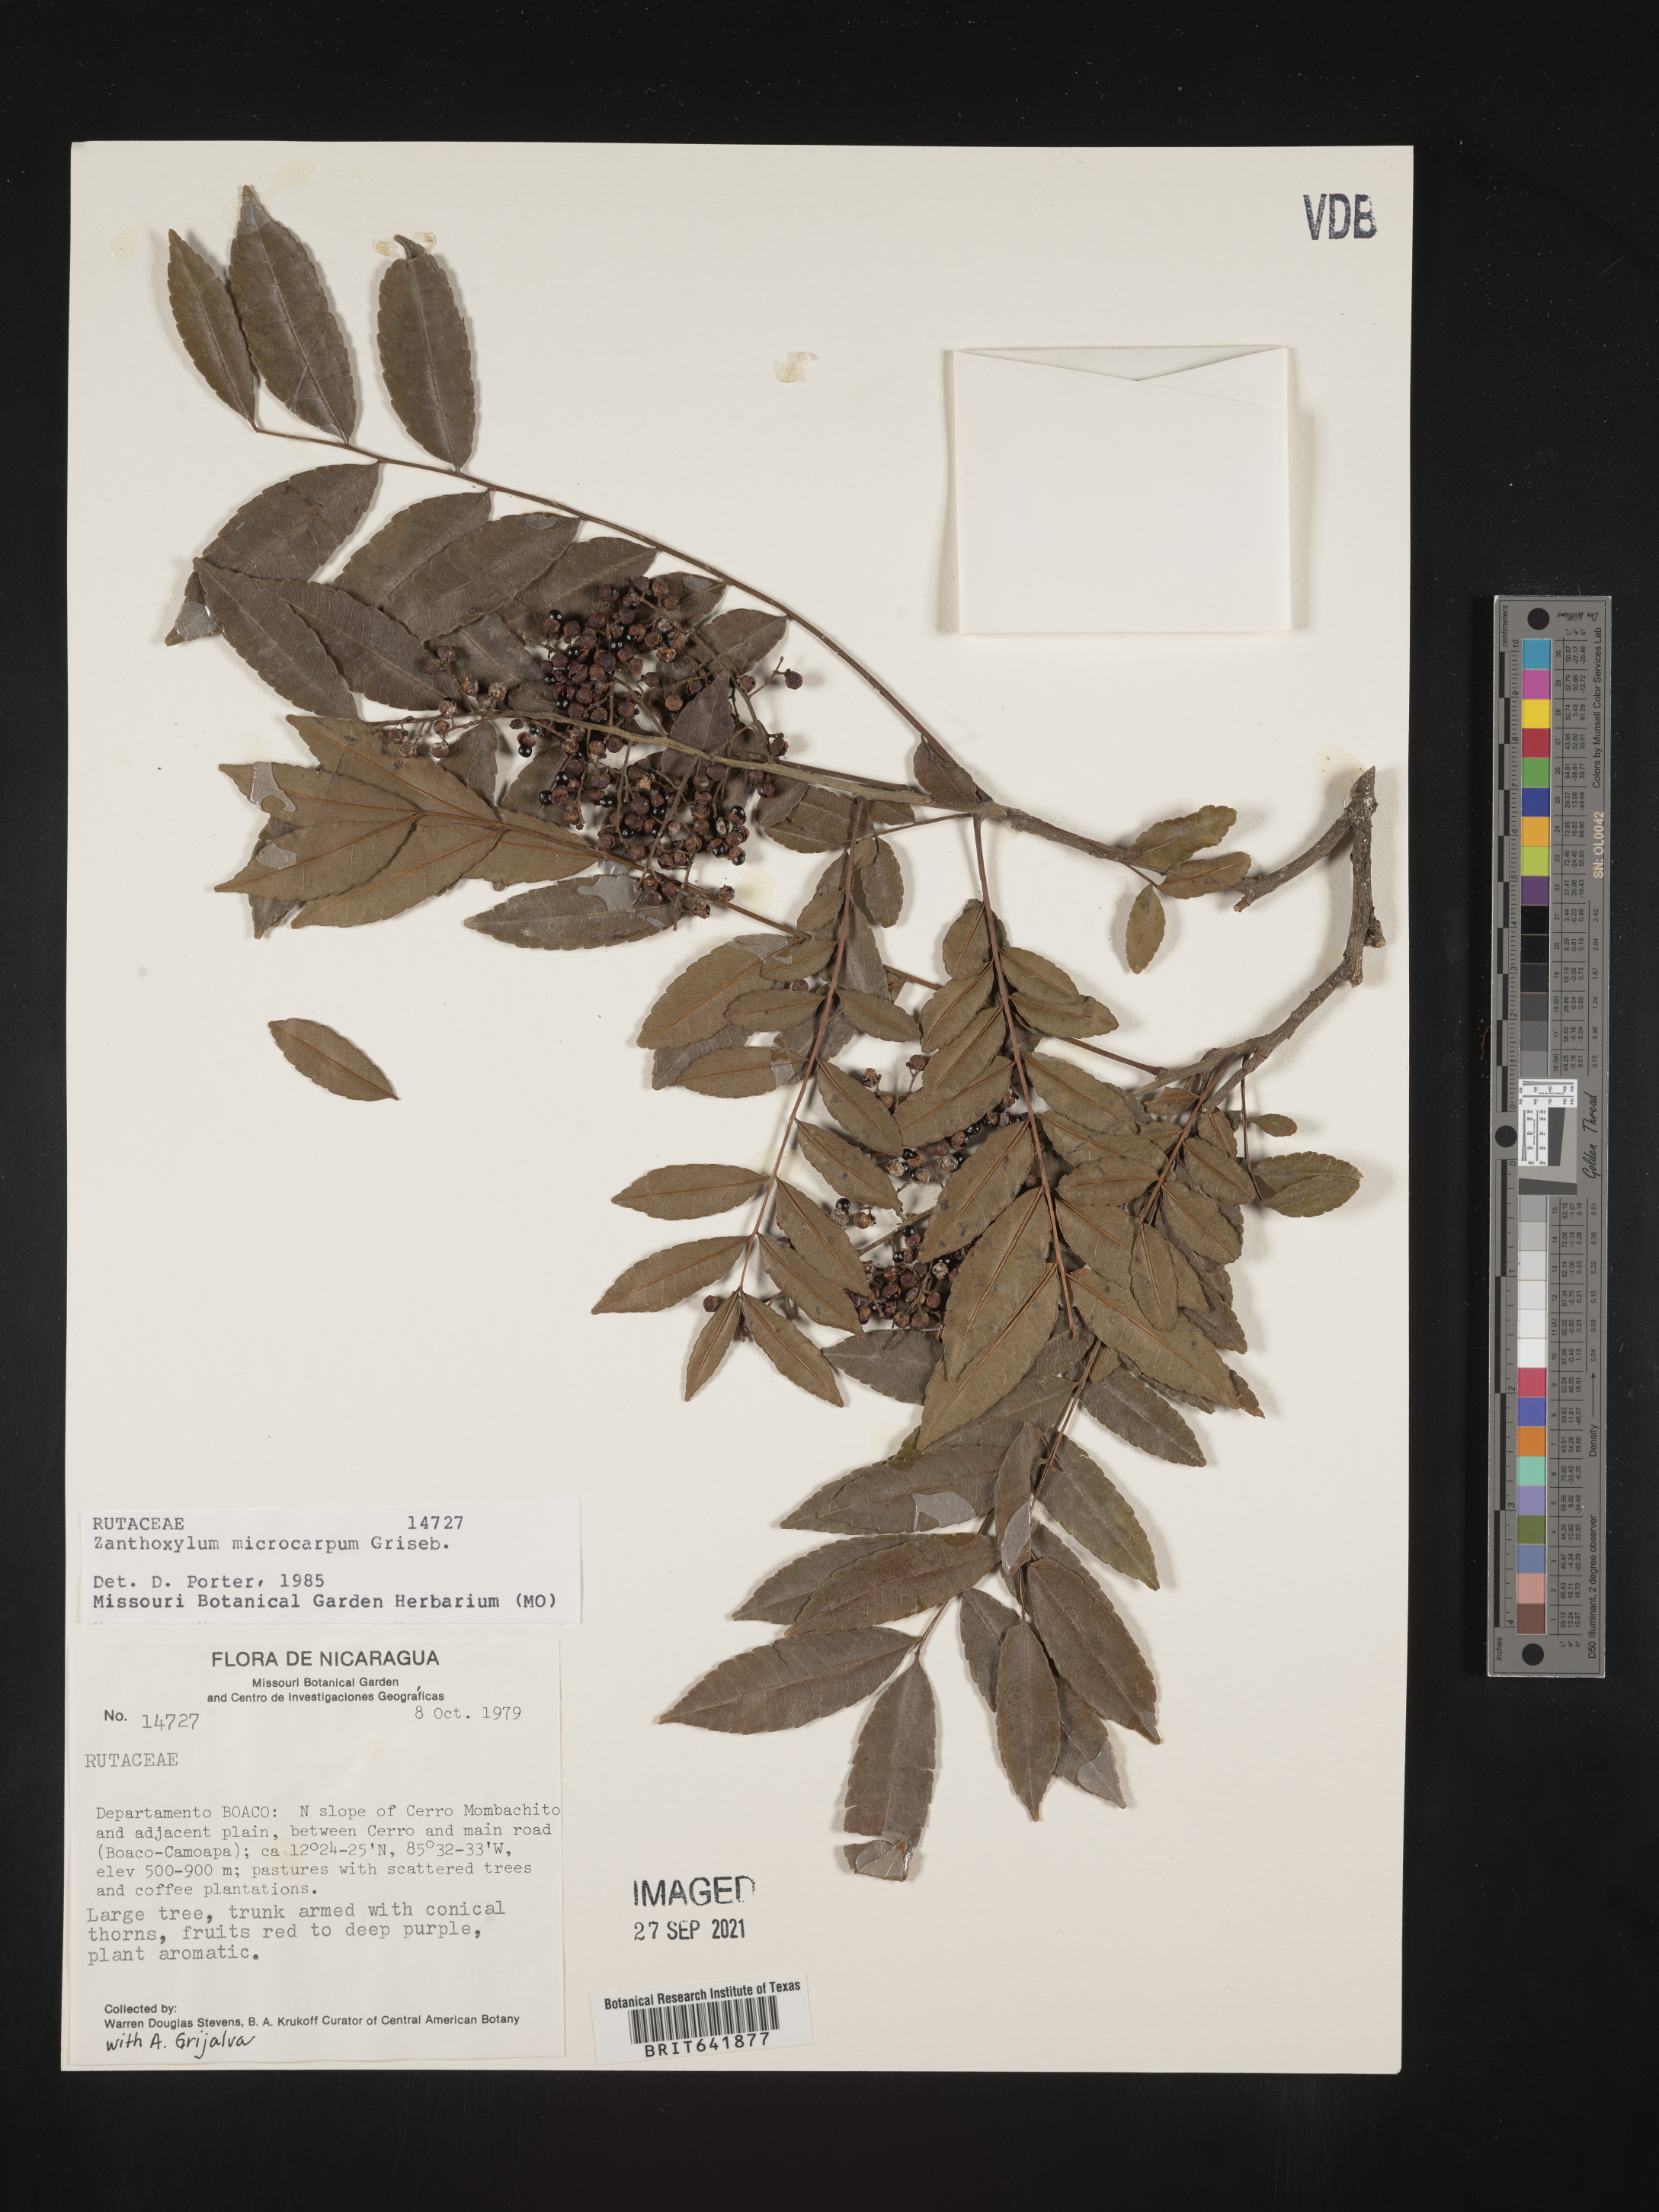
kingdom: Plantae
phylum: Tracheophyta
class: Magnoliopsida
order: Sapindales
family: Rutaceae
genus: Zanthoxylum
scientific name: Zanthoxylum
